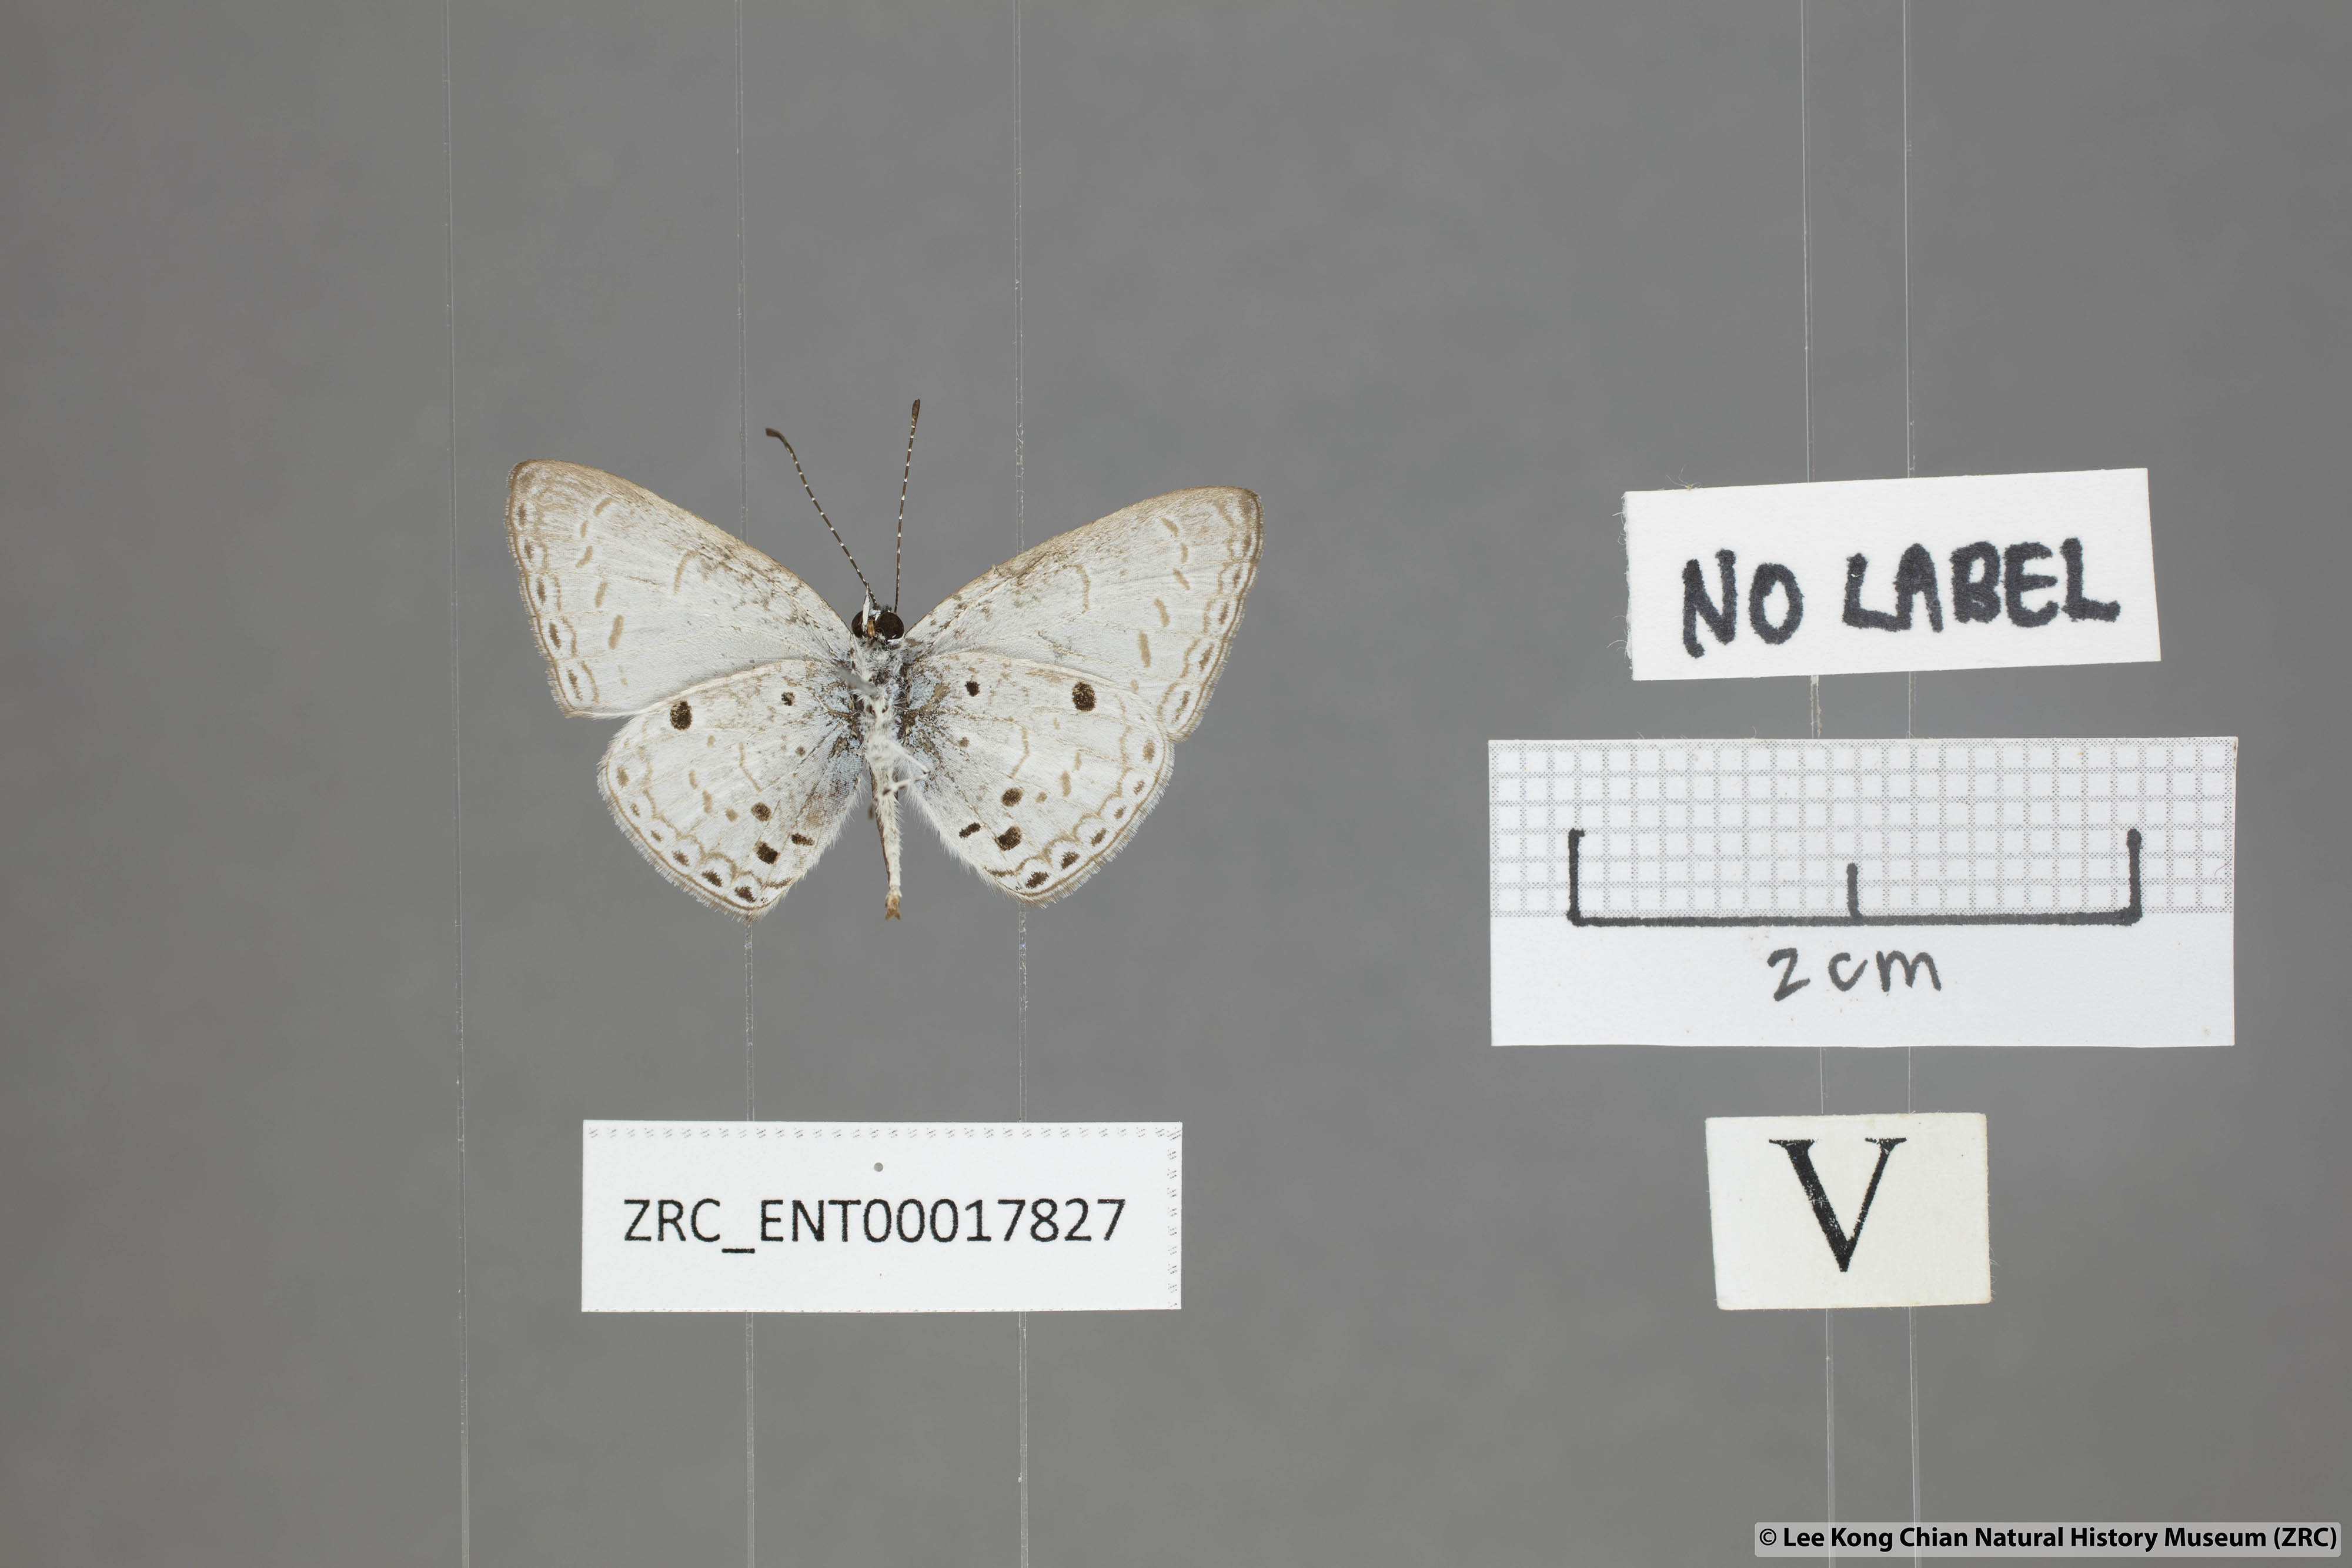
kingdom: Animalia
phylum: Arthropoda
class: Insecta
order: Lepidoptera
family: Lycaenidae
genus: Cebrella
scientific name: Cebrella
